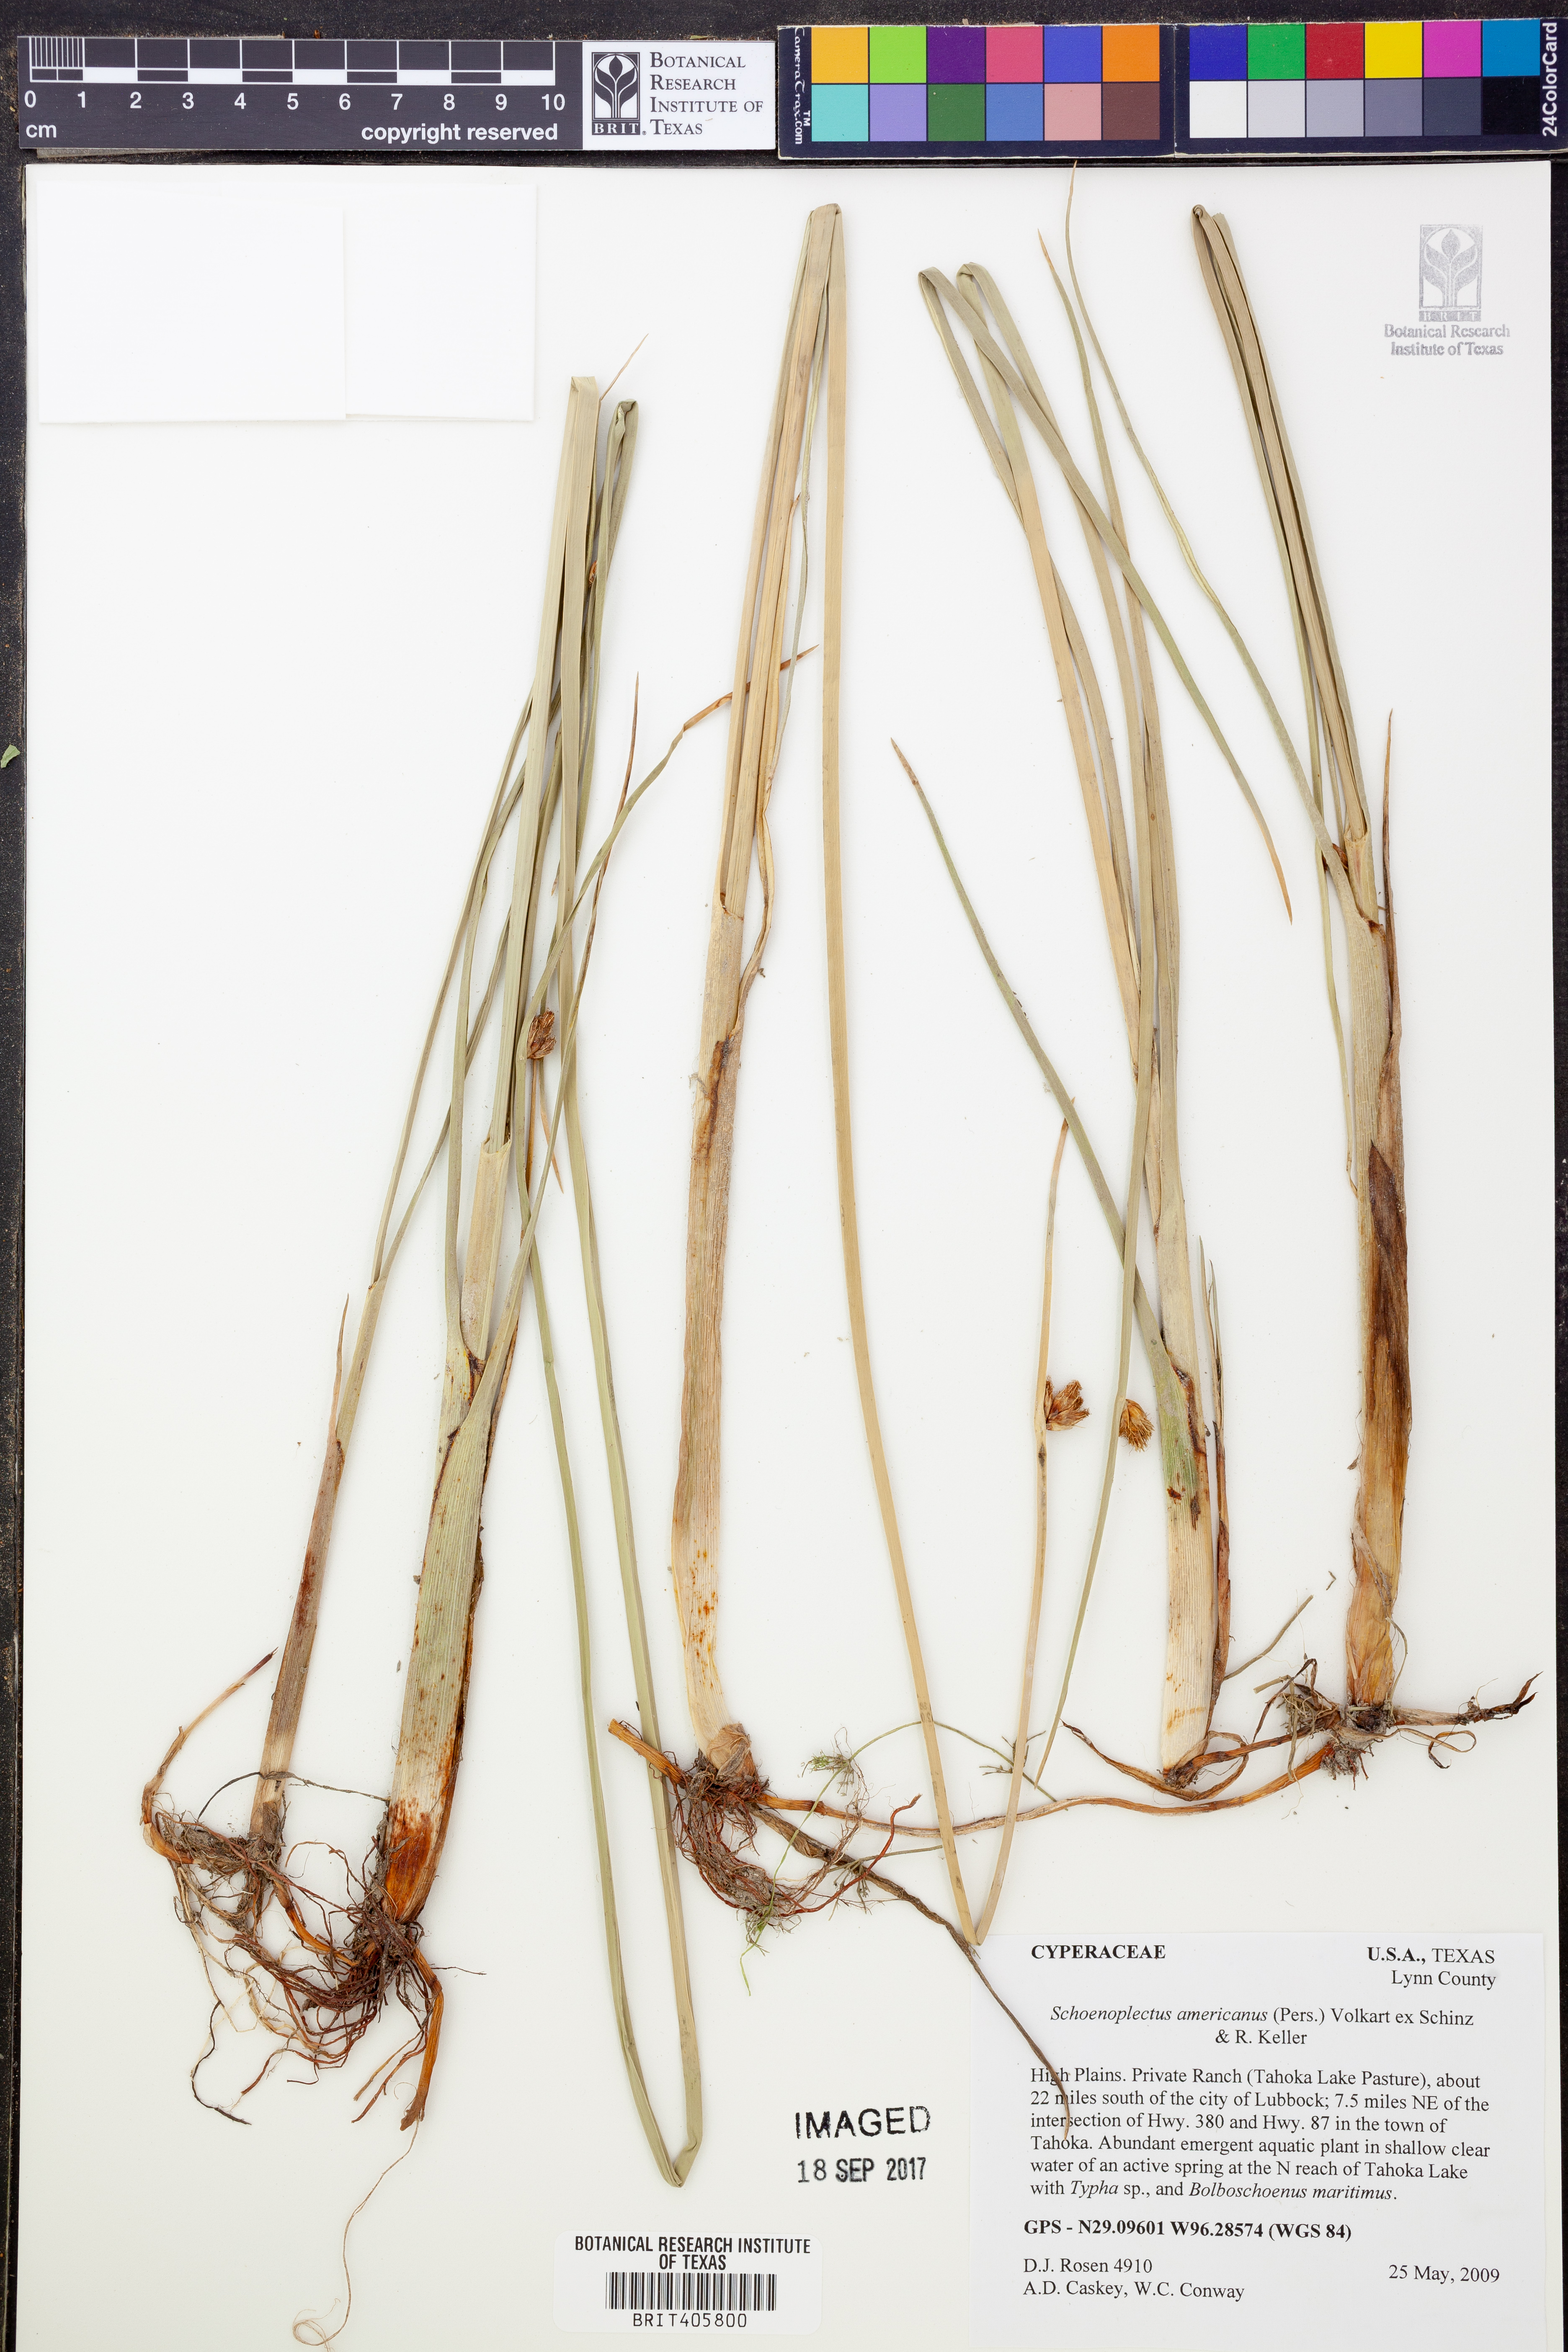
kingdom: Plantae
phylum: Tracheophyta
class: Liliopsida
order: Poales
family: Cyperaceae
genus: Schoenoplectus
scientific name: Schoenoplectus americanus
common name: American three-square bulrush
